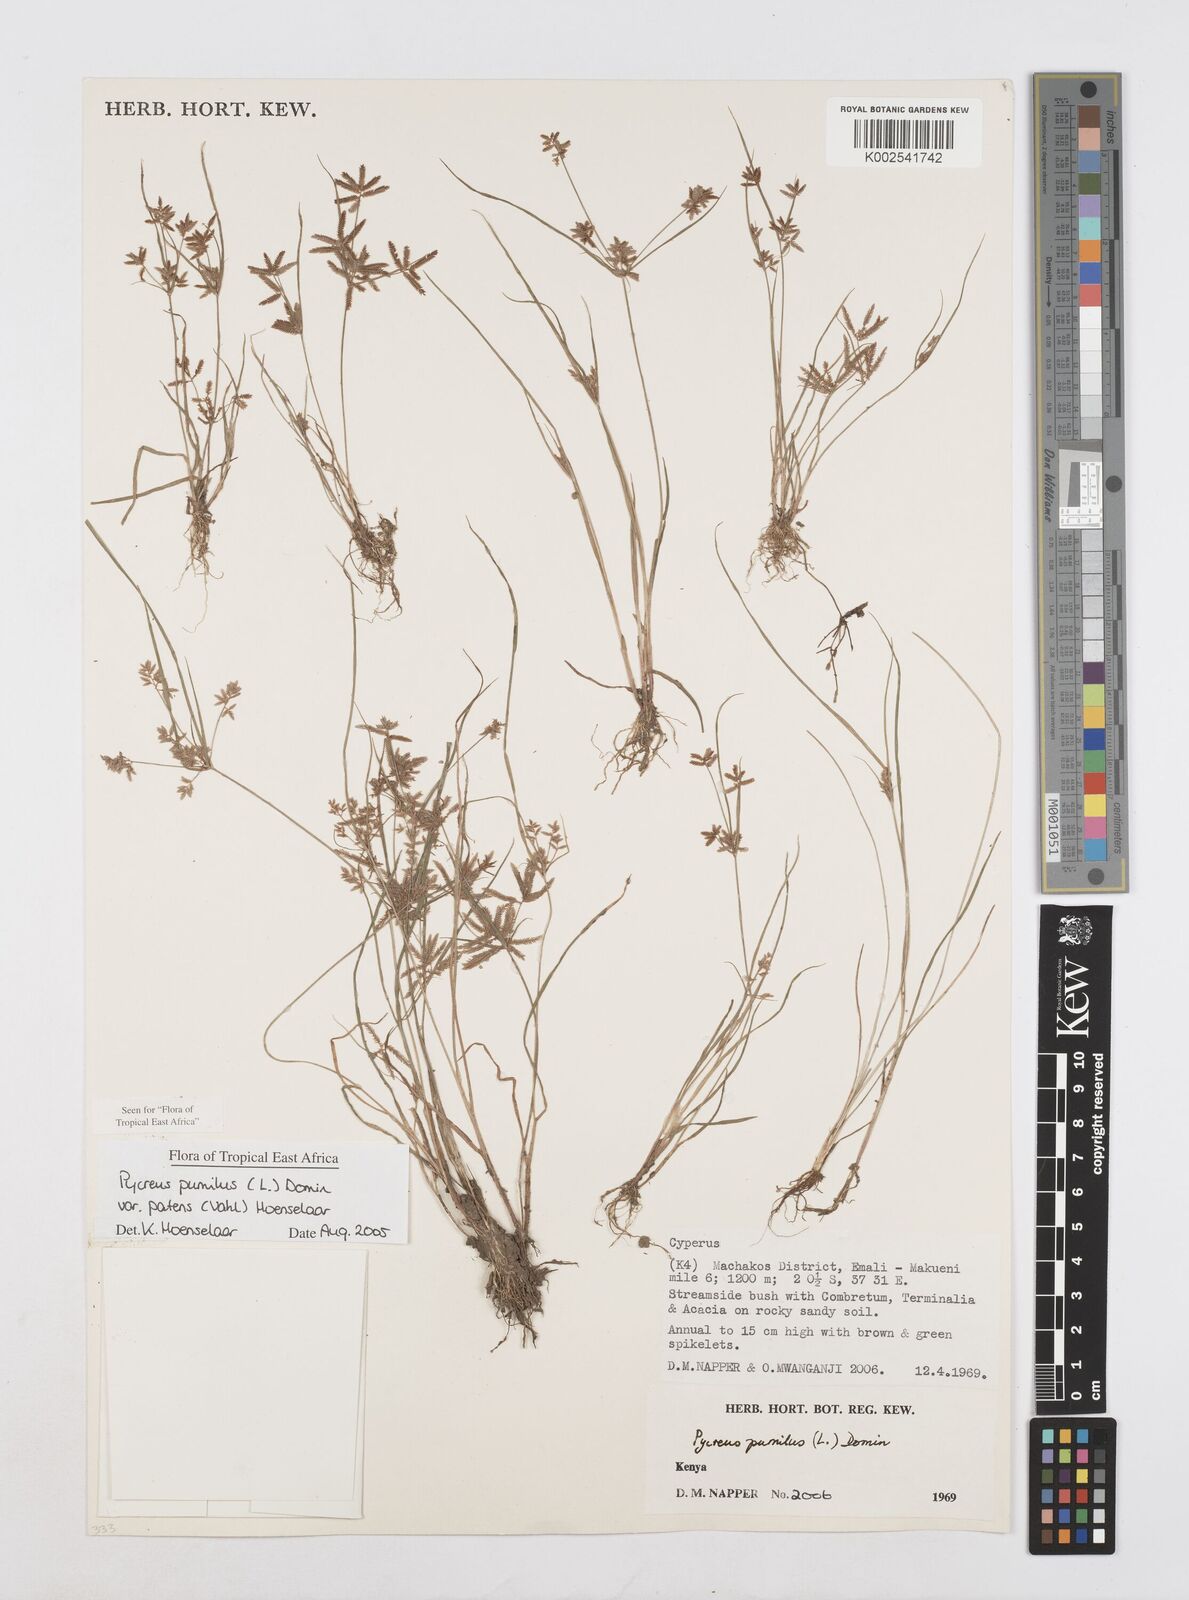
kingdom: Plantae
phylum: Tracheophyta
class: Liliopsida
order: Poales
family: Cyperaceae
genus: Cyperus
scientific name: Cyperus pumilus
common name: Low flatsedge
